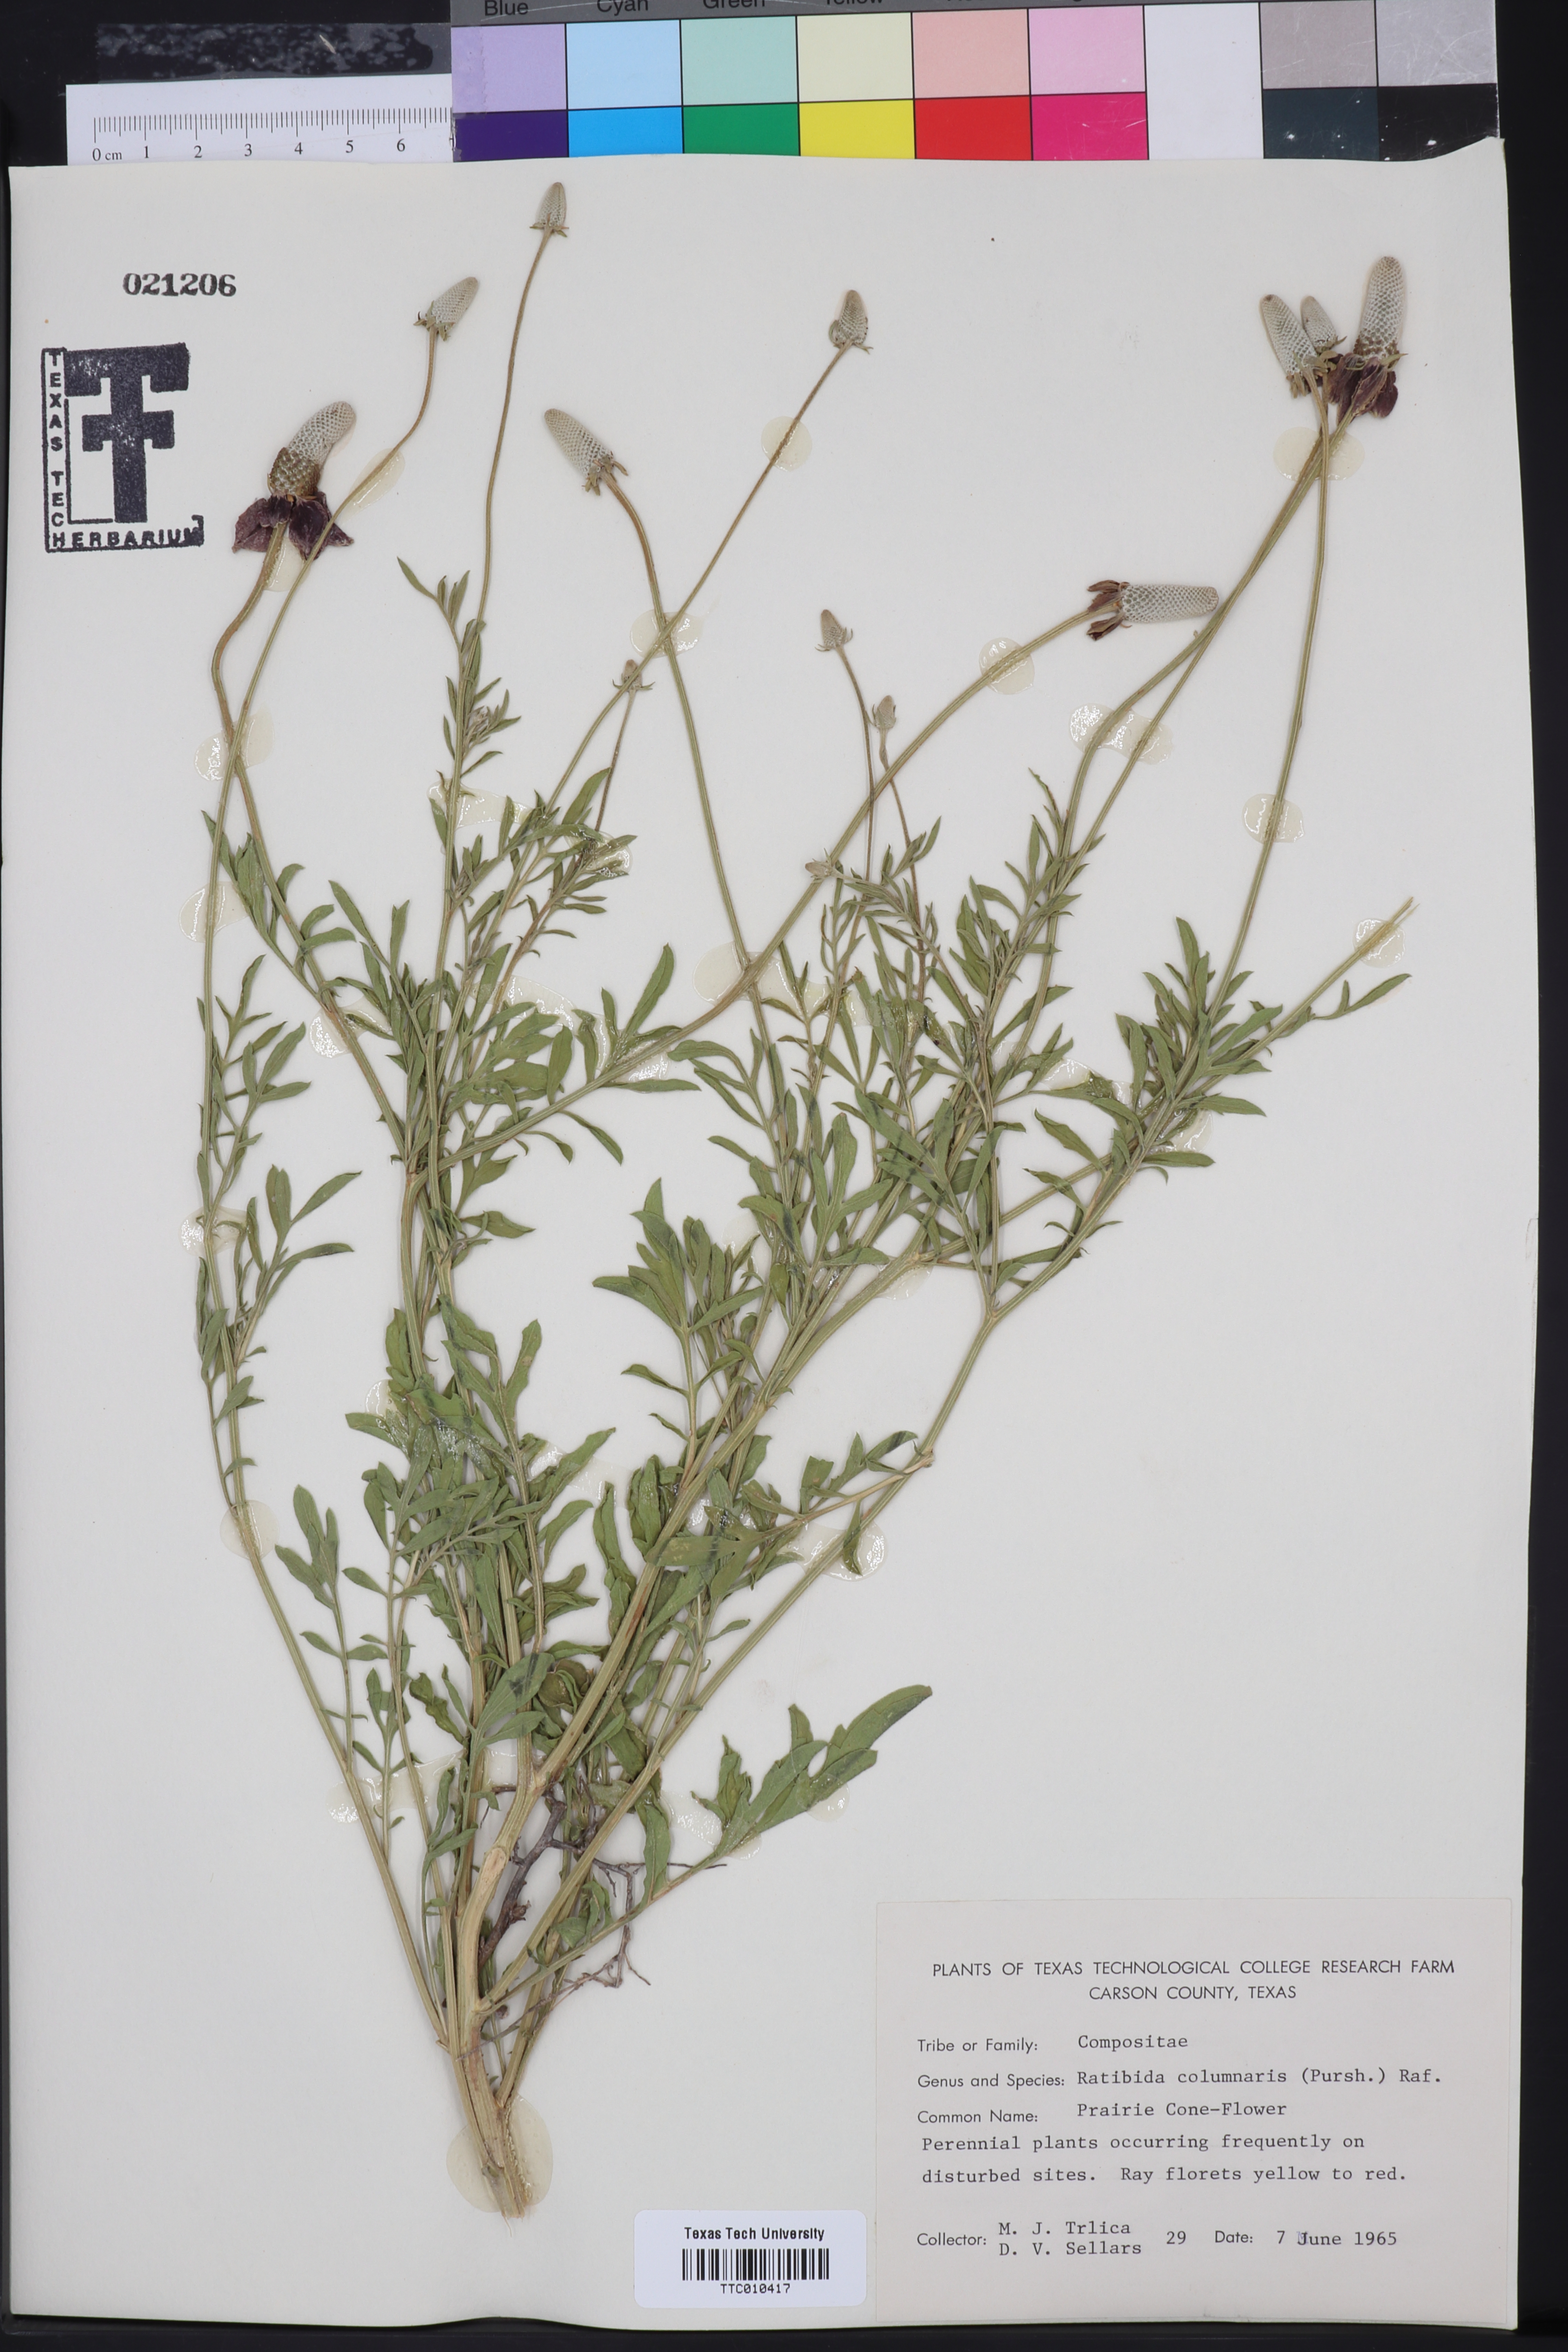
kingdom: Plantae
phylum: Tracheophyta
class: Magnoliopsida
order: Asterales
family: Asteraceae
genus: Ratibida
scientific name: Ratibida columnifera
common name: Prairie coneflower
